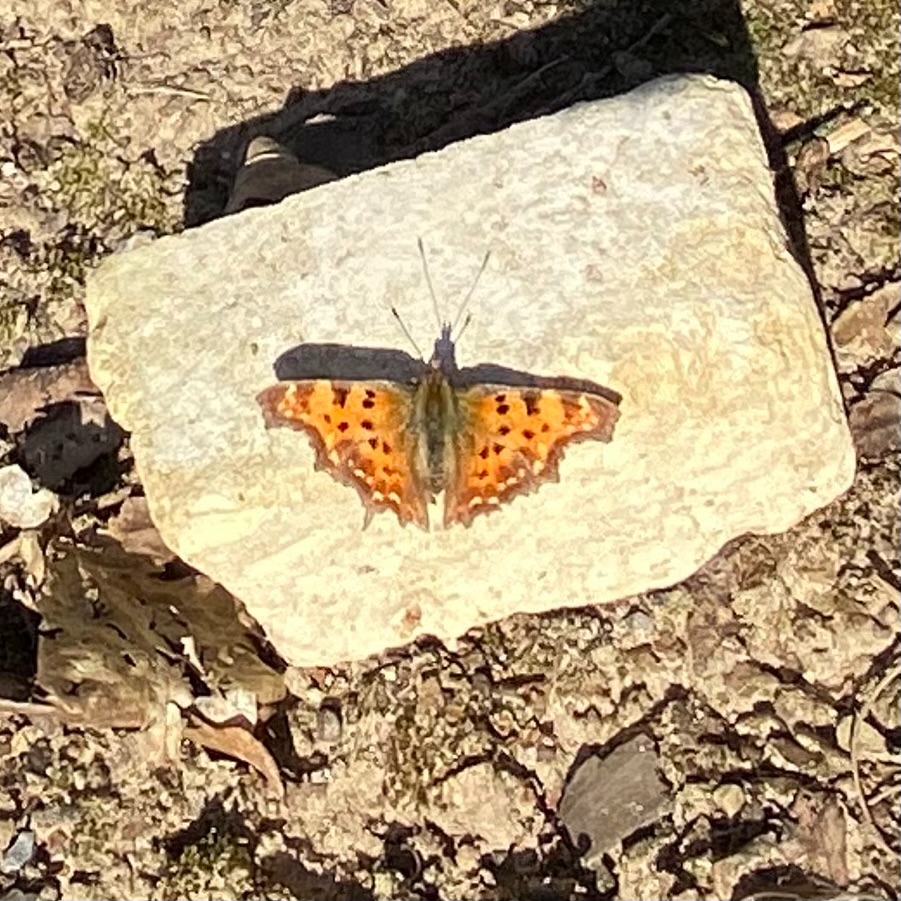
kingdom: Animalia
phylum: Arthropoda
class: Insecta
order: Lepidoptera
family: Nymphalidae
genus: Polygonia
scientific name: Polygonia c-album
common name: Det hvide C
